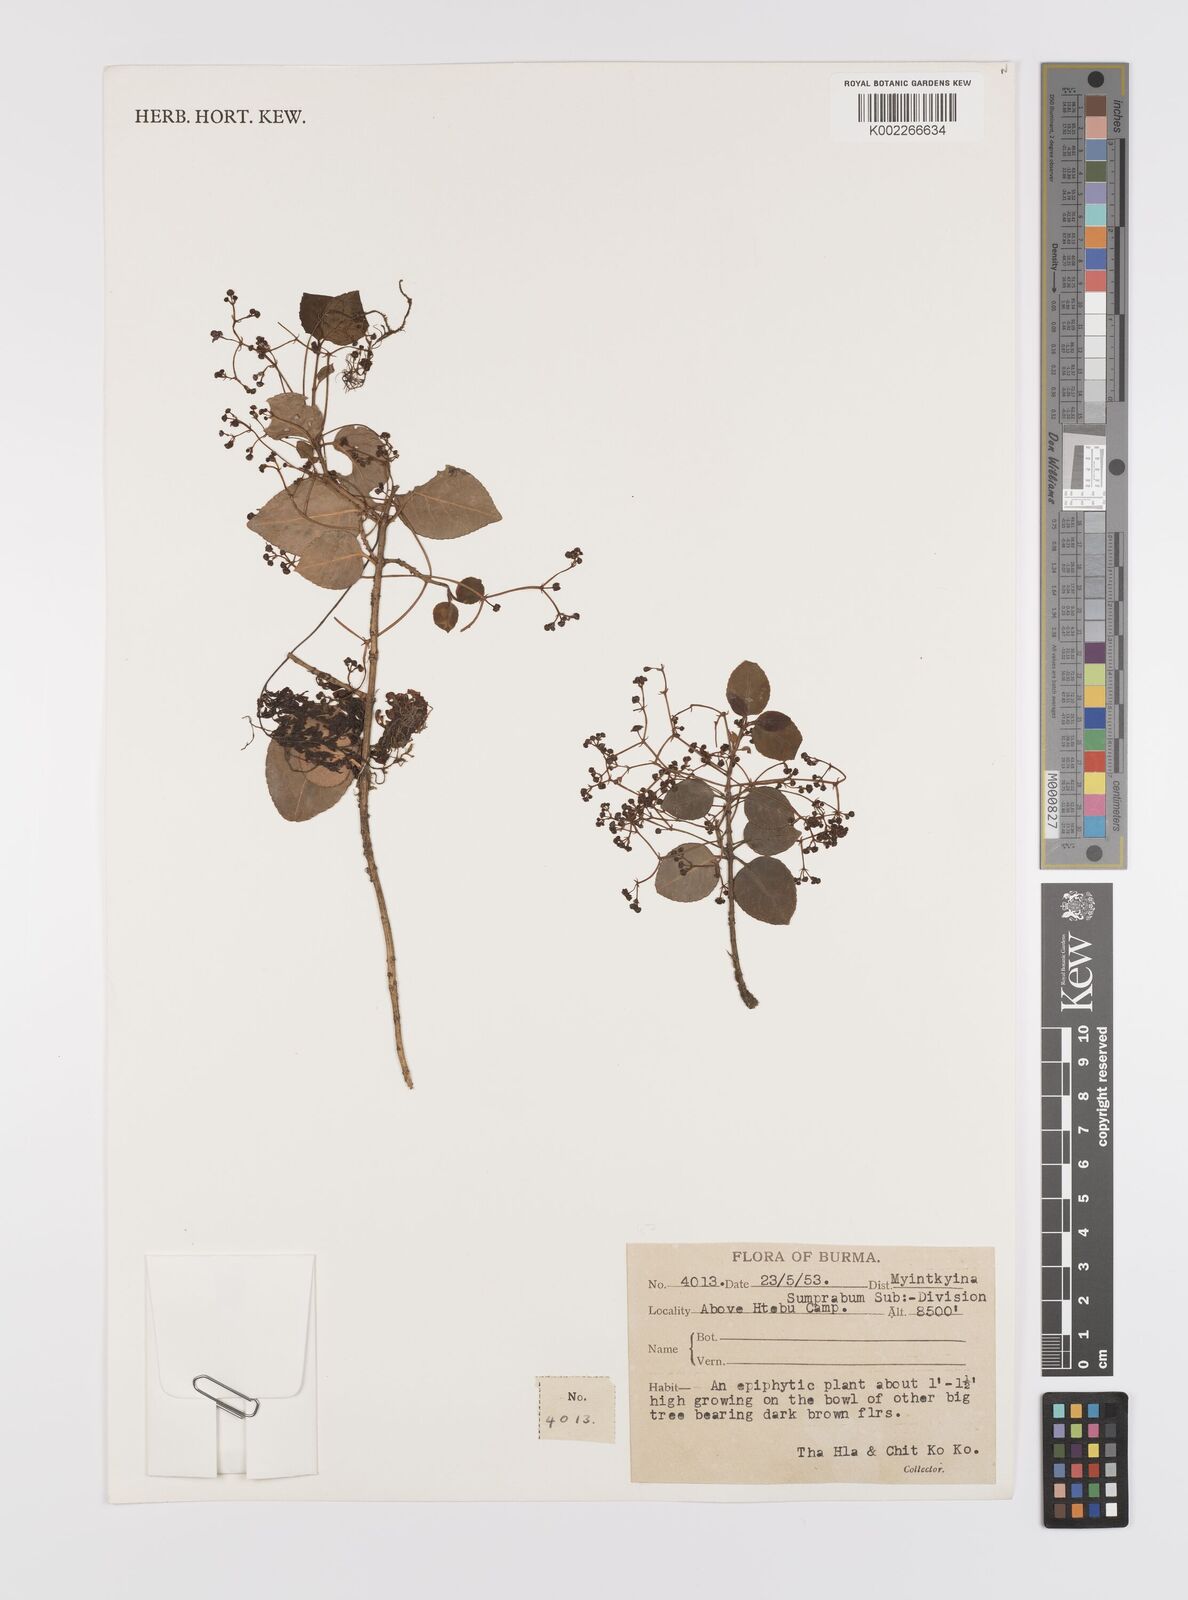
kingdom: Plantae
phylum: Tracheophyta
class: Magnoliopsida
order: Celastrales
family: Celastraceae
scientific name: Celastraceae
